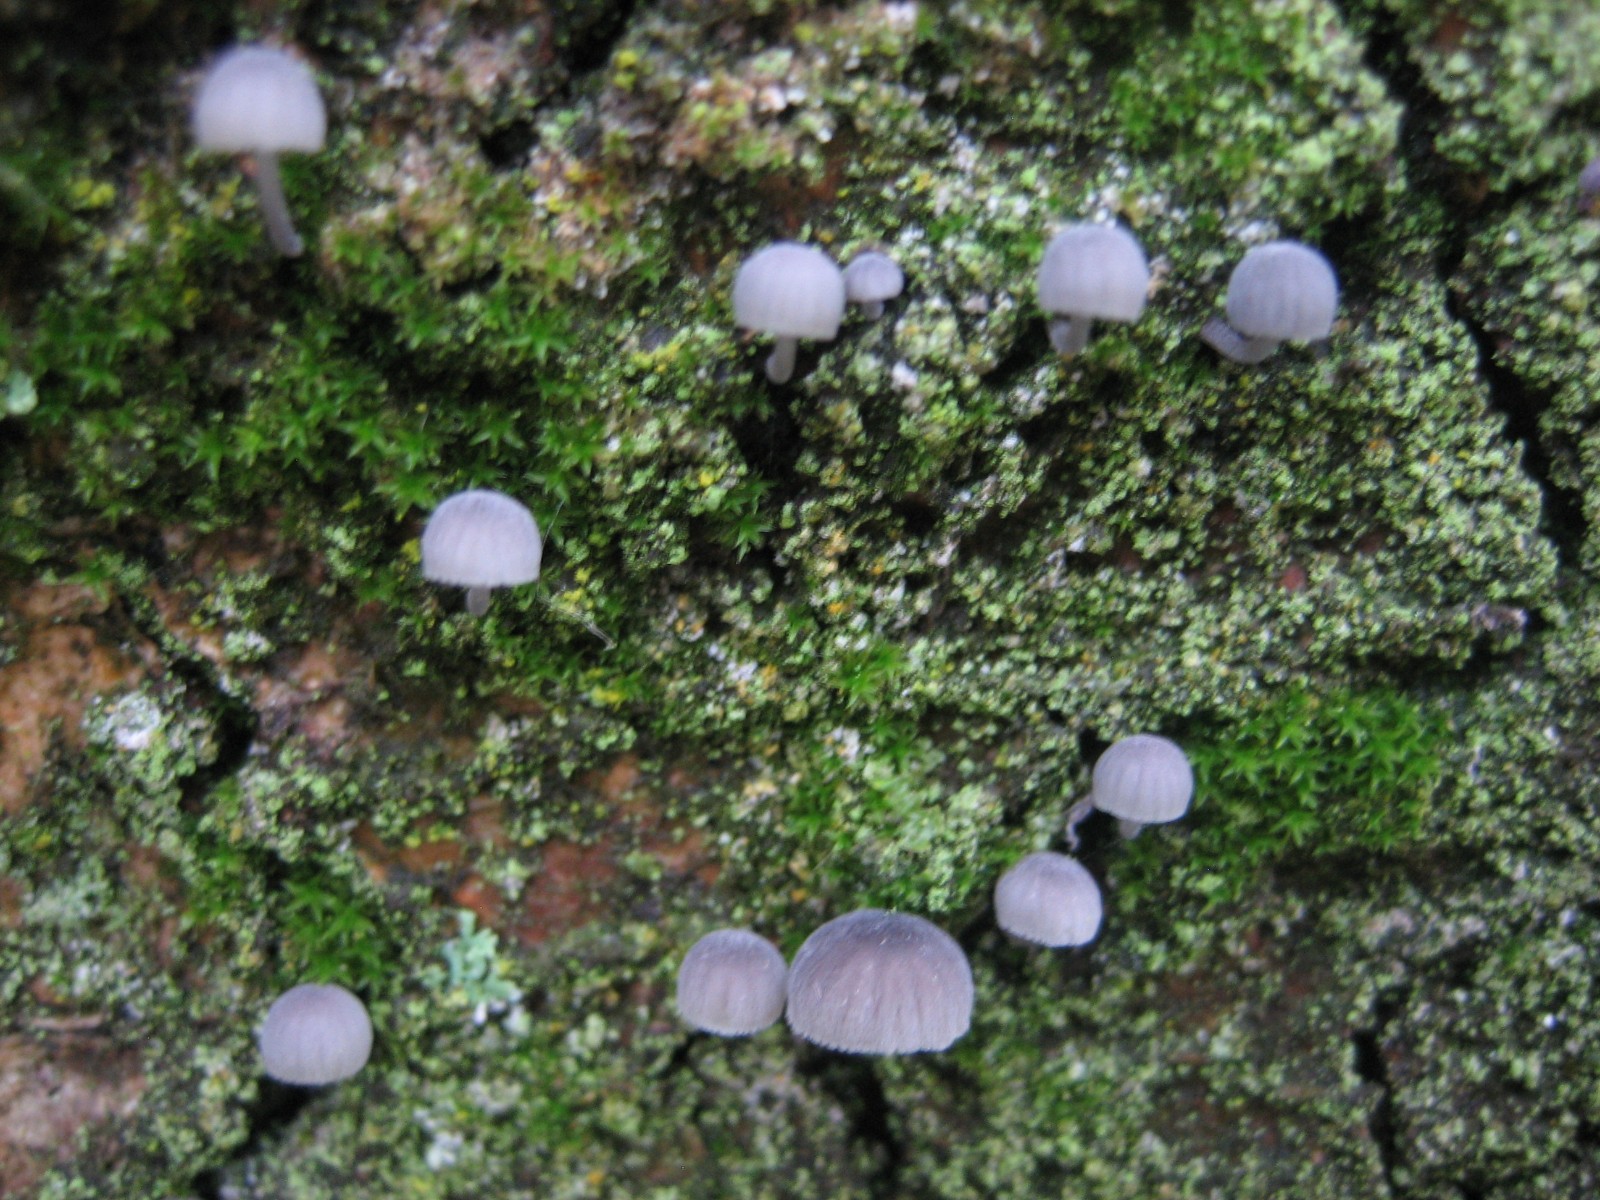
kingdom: Fungi
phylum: Basidiomycota
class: Agaricomycetes
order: Agaricales
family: Mycenaceae
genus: Mycena
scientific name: Mycena pseudocorticola
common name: gråblå bark-huesvamp
